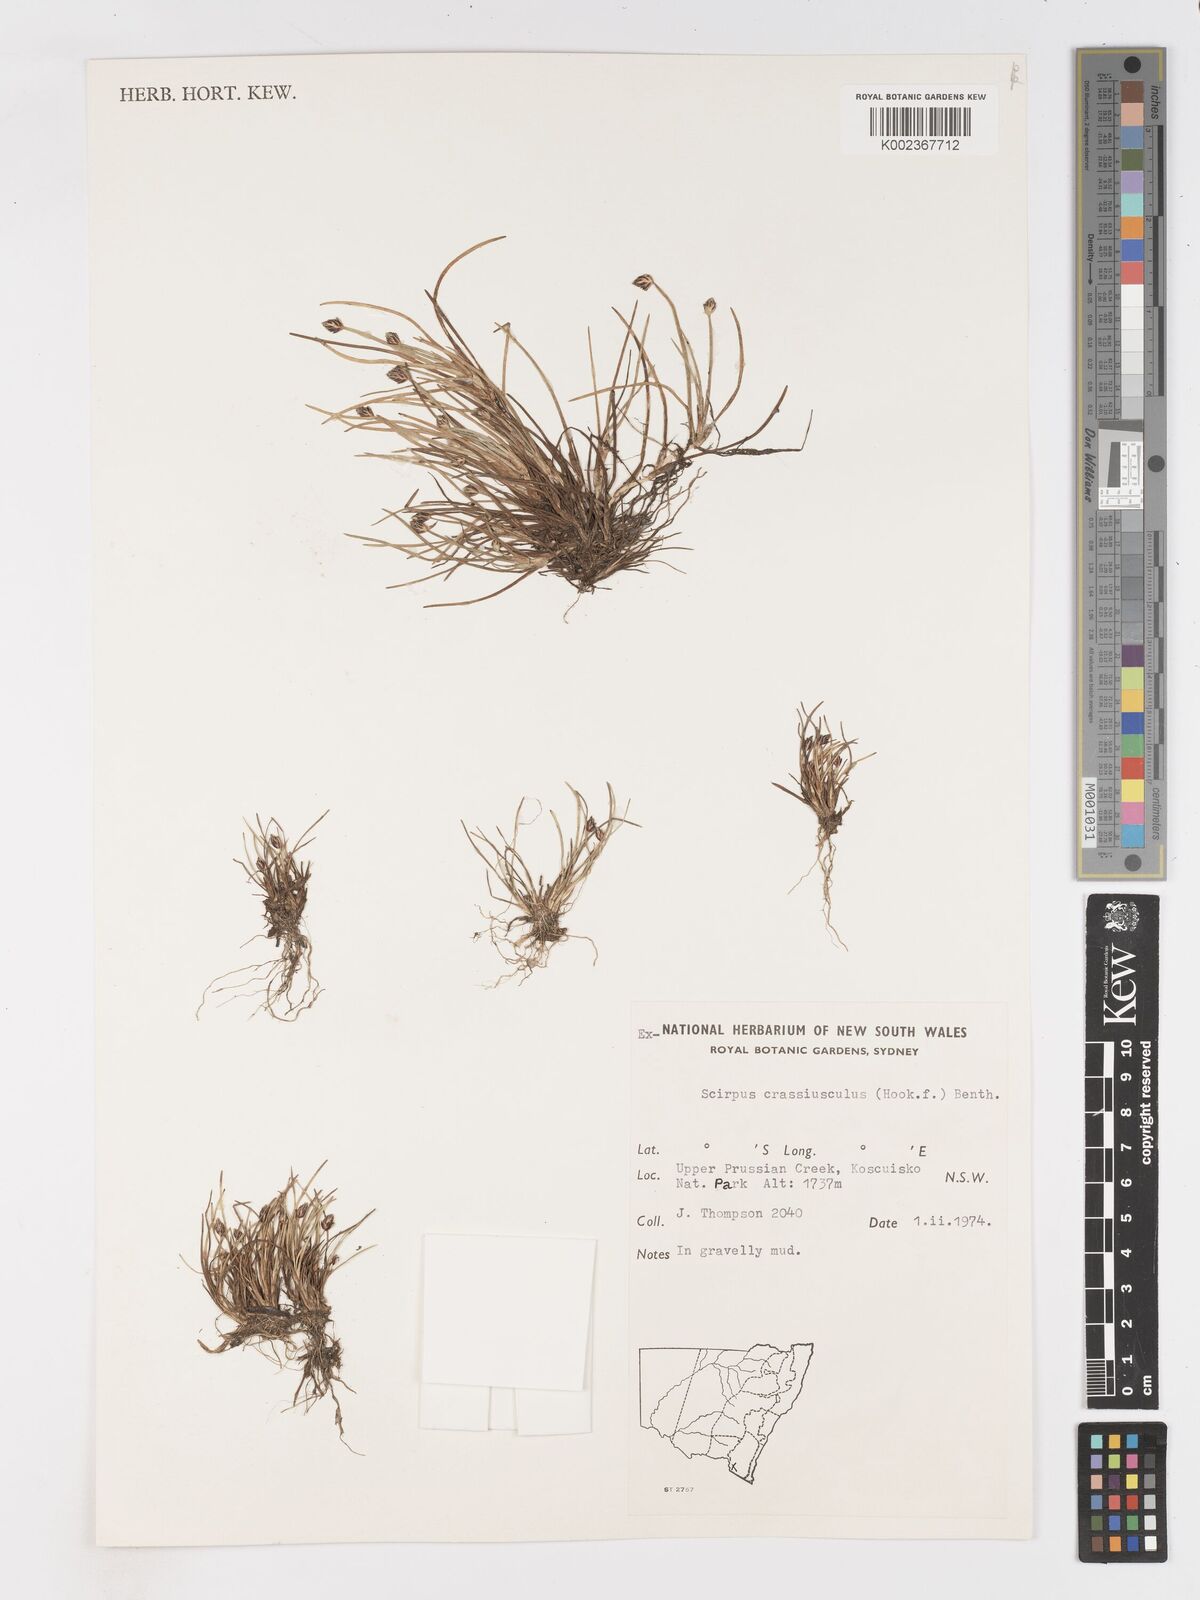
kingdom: Plantae
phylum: Tracheophyta
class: Liliopsida
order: Poales
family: Cyperaceae
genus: Isolepis
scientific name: Isolepis crassiuscula
